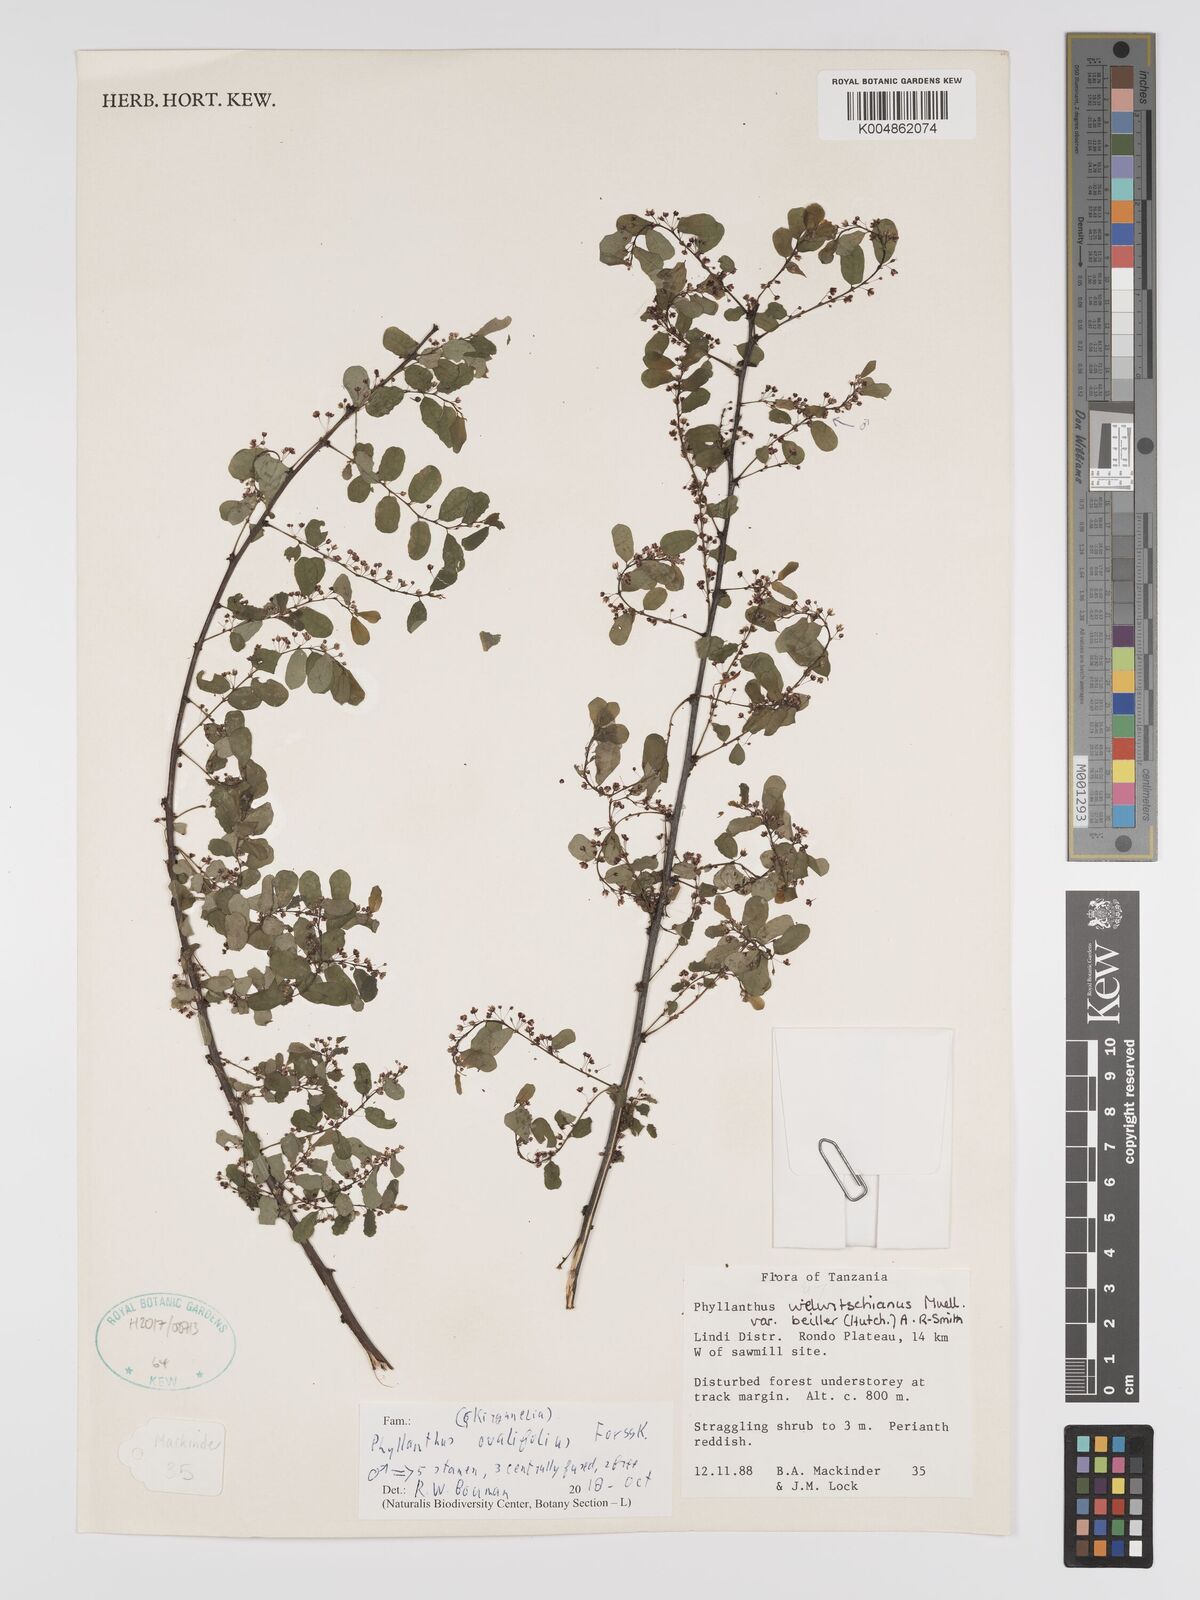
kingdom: Plantae
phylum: Tracheophyta
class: Magnoliopsida
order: Malpighiales
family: Phyllanthaceae
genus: Phyllanthus
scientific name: Phyllanthus ovalifolius
